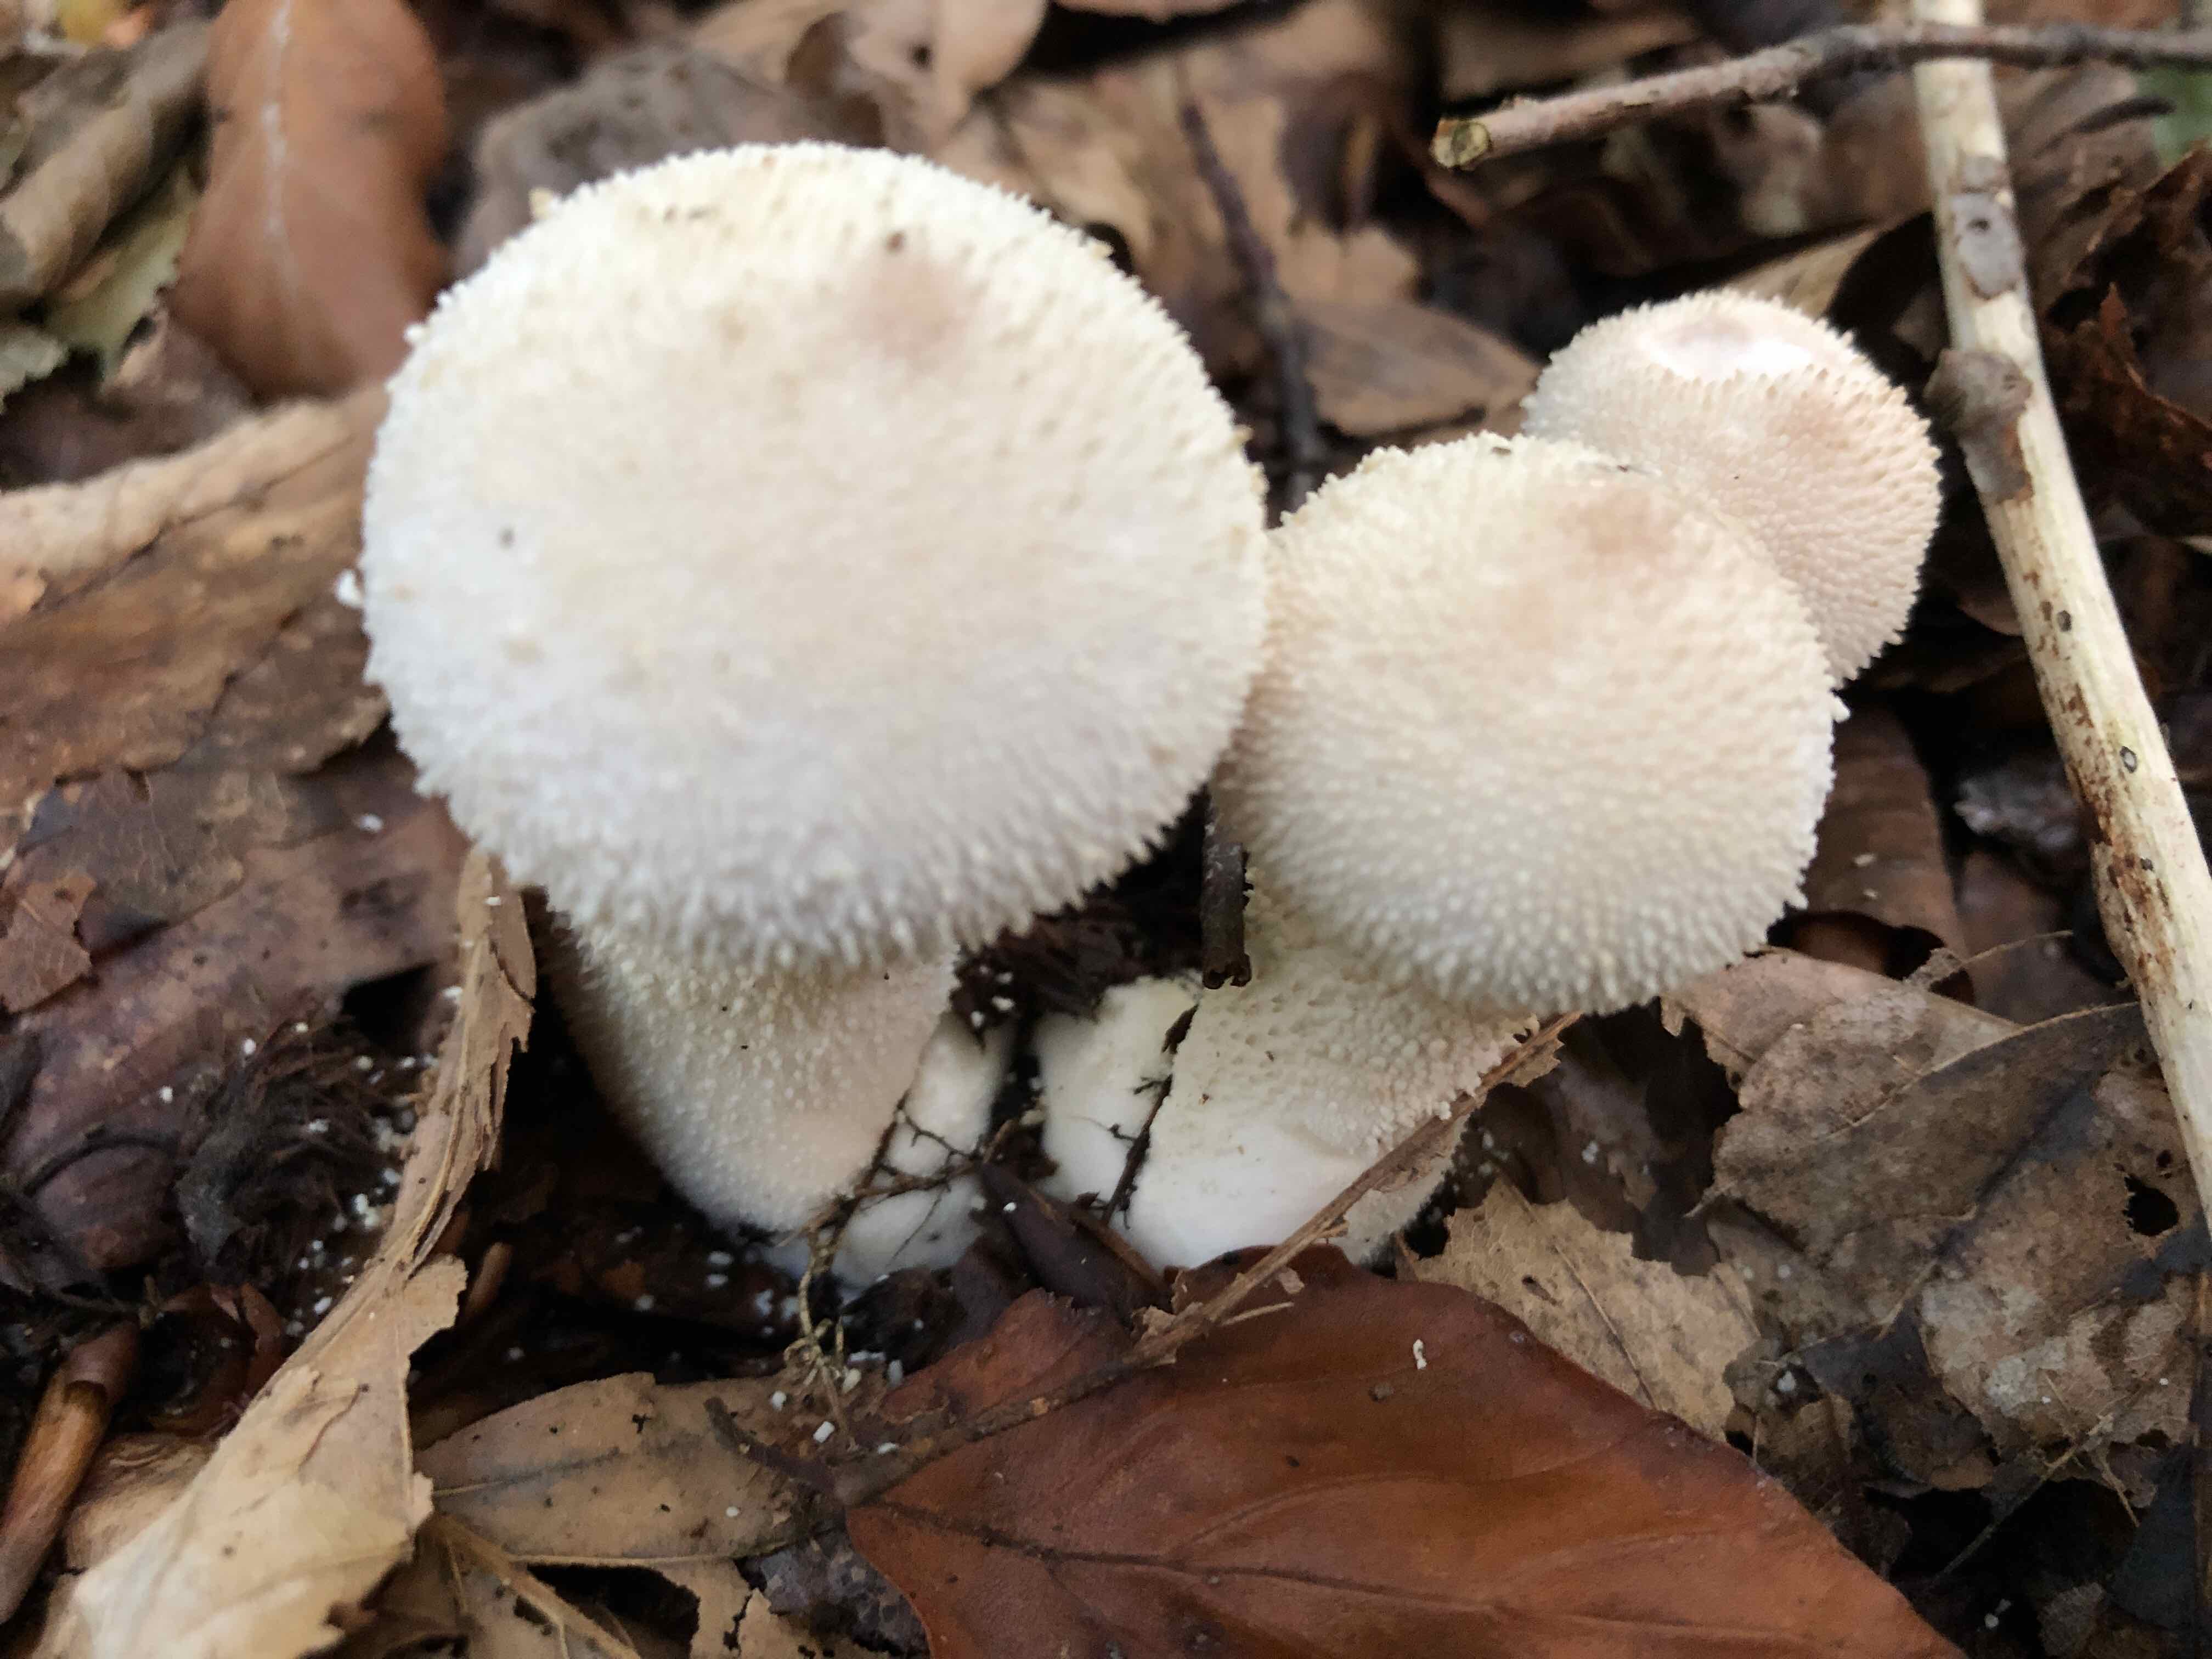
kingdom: Fungi
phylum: Basidiomycota
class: Agaricomycetes
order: Agaricales
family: Lycoperdaceae
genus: Lycoperdon
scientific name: Lycoperdon perlatum
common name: krystal-støvbold
